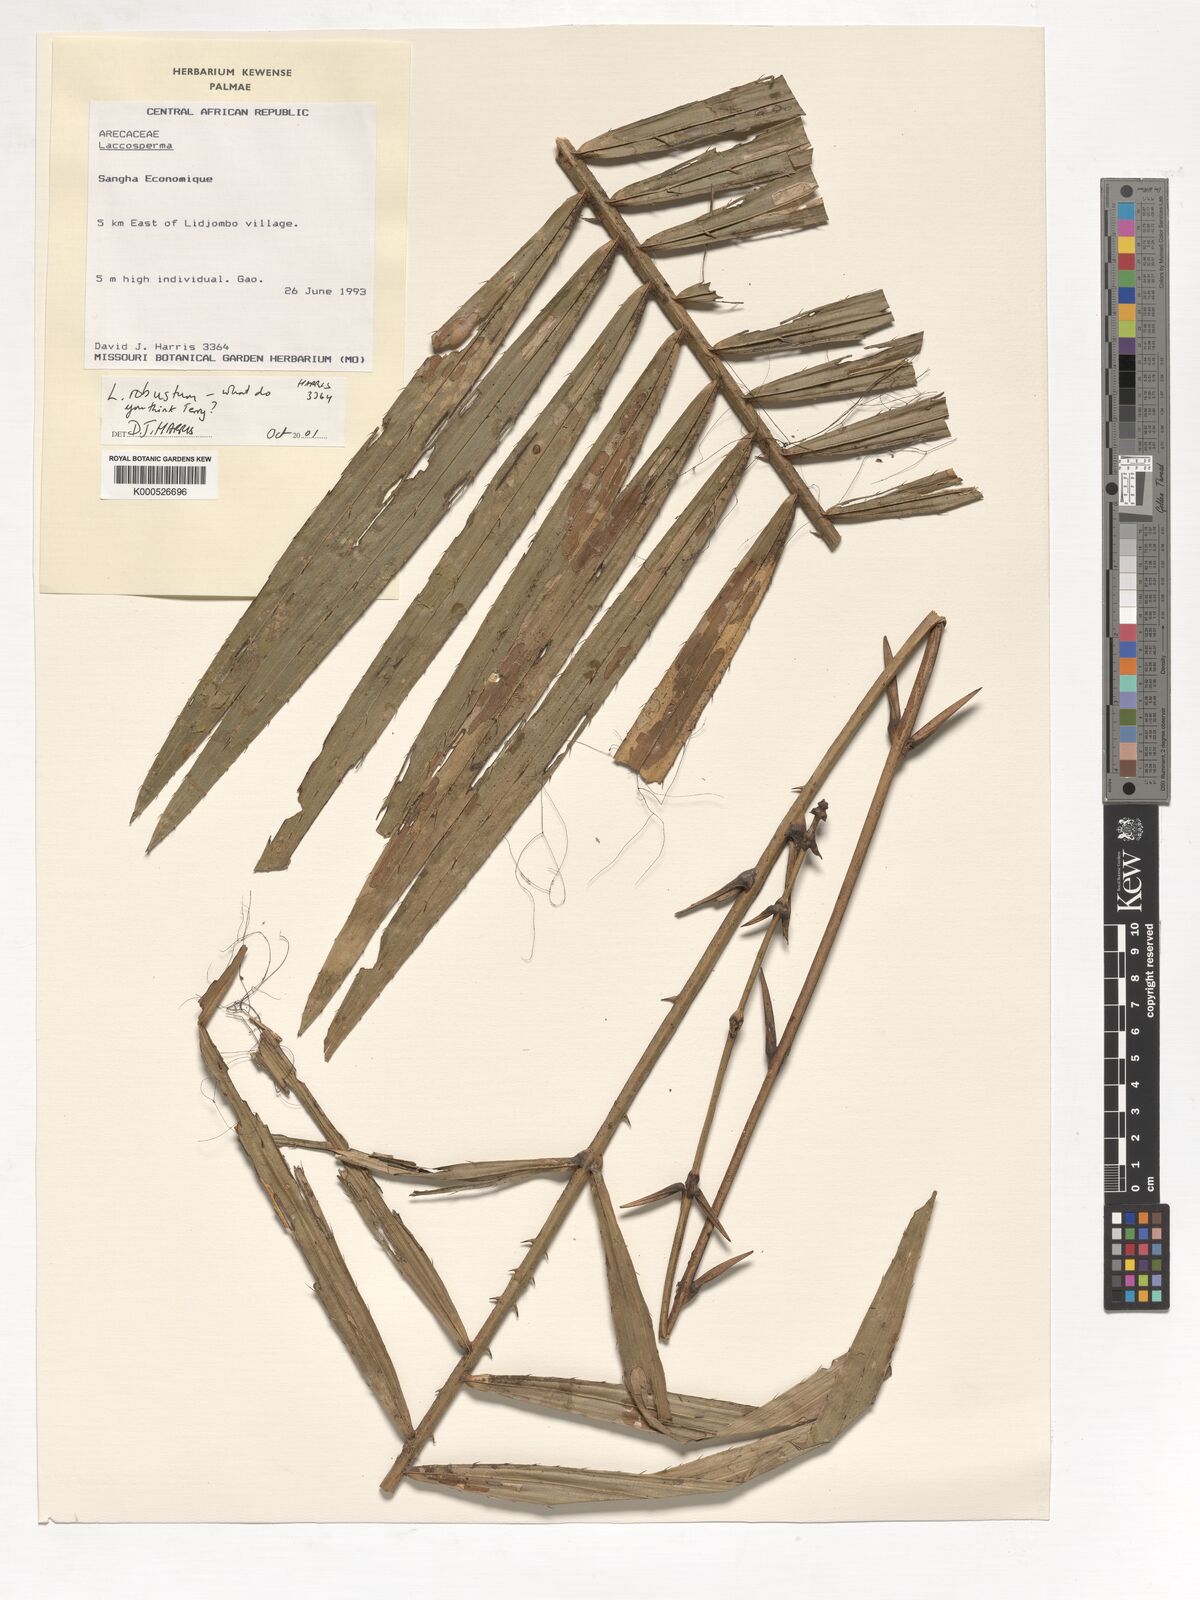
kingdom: Plantae
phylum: Tracheophyta
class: Liliopsida
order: Arecales
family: Arecaceae
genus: Laccosperma
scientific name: Laccosperma robustum
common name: Rattan
